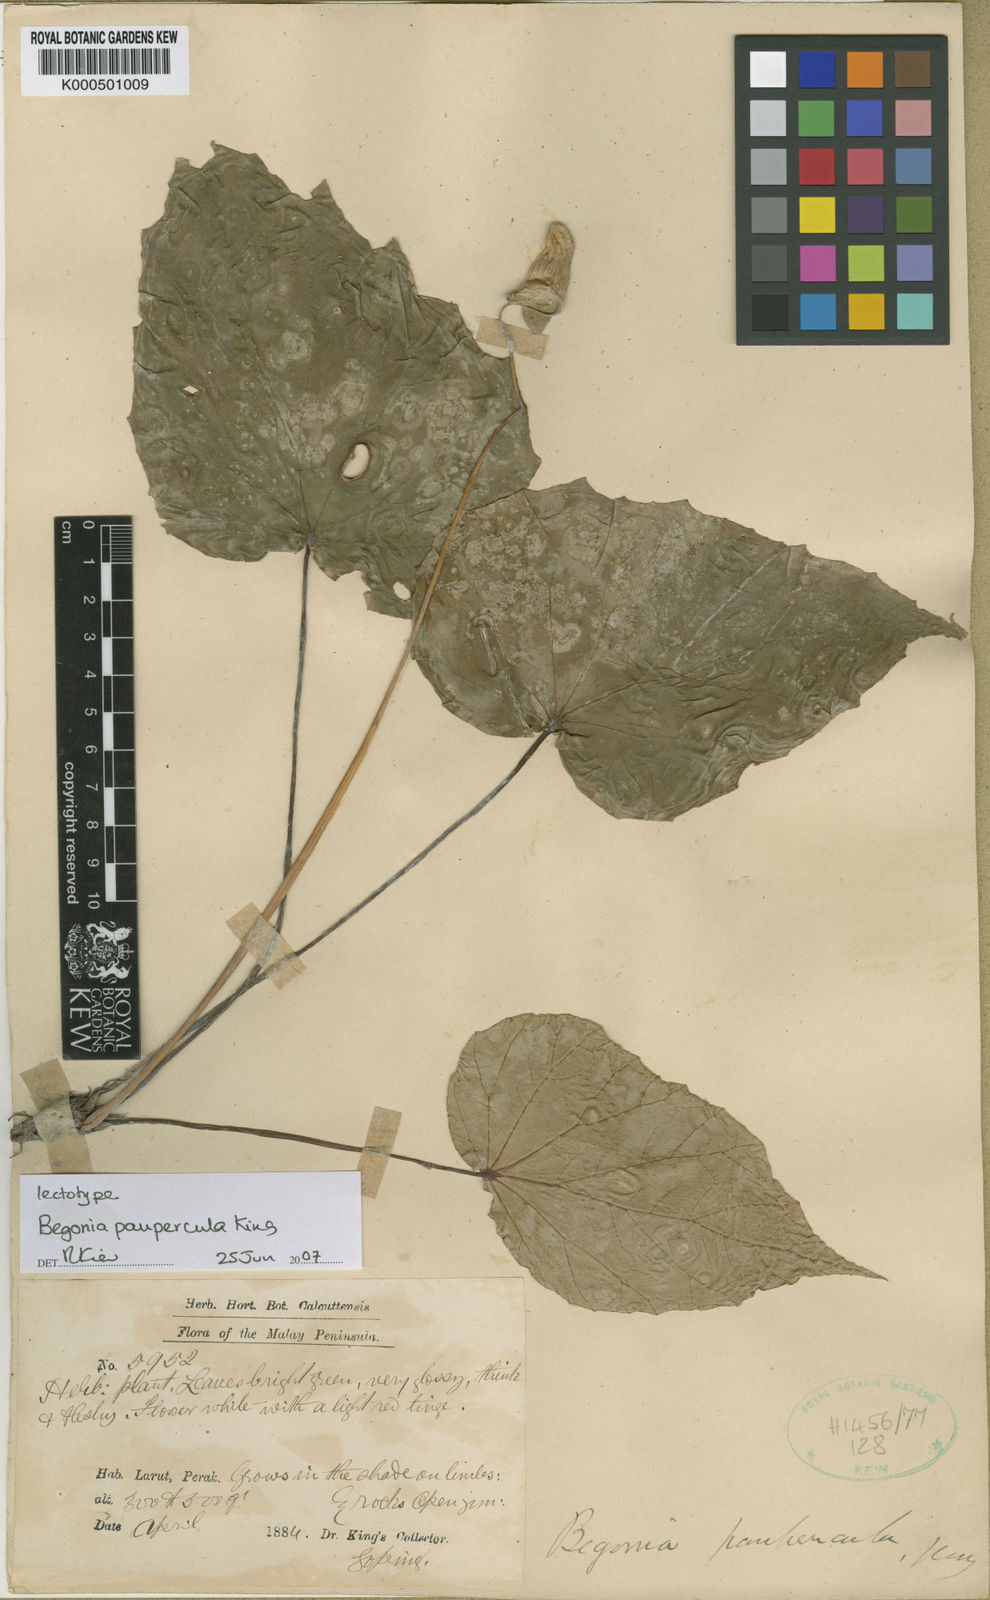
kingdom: Plantae
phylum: Tracheophyta
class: Magnoliopsida
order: Cucurbitales
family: Begoniaceae
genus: Begonia
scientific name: Begonia paupercula
